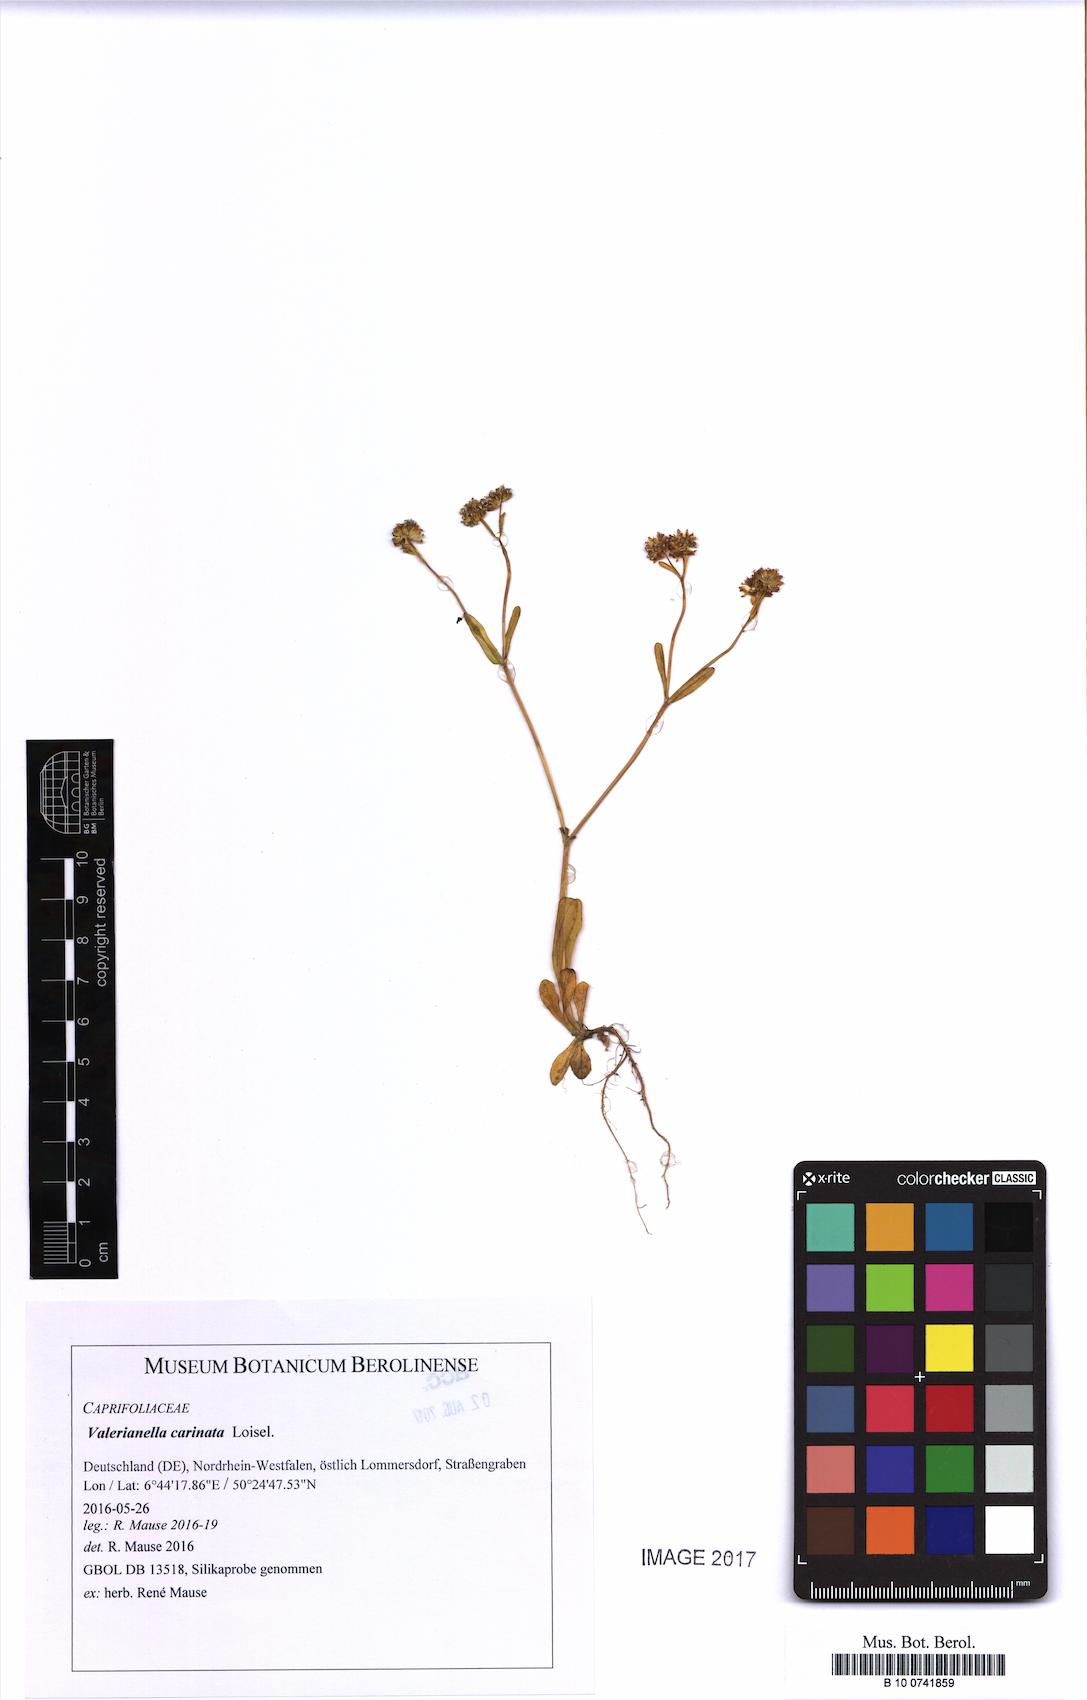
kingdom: Plantae
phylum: Tracheophyta
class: Magnoliopsida
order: Dipsacales
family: Caprifoliaceae
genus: Valerianella
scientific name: Valerianella carinata
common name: Keeled-fruited cornsalad
